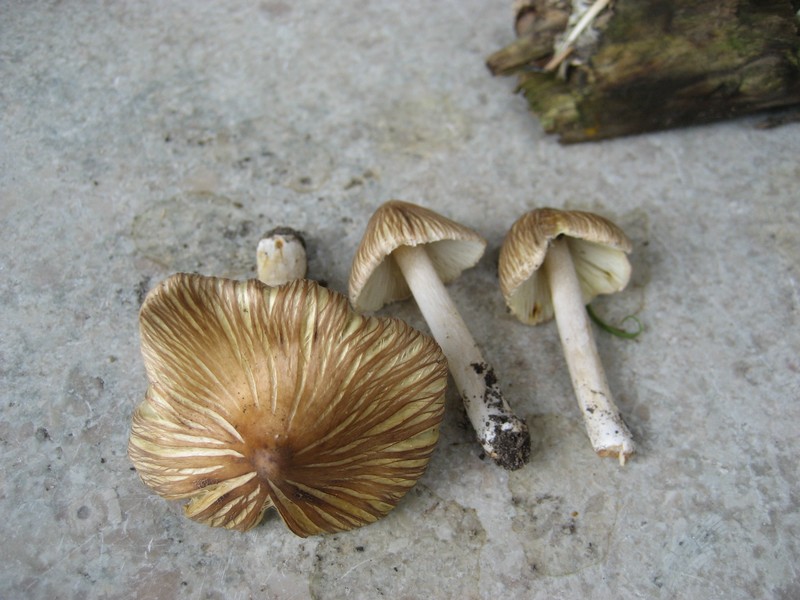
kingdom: Fungi
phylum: Basidiomycota
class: Agaricomycetes
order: Agaricales
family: Inocybaceae
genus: Pseudosperma
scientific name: Pseudosperma rimosum
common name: gulbladet trævlhat
